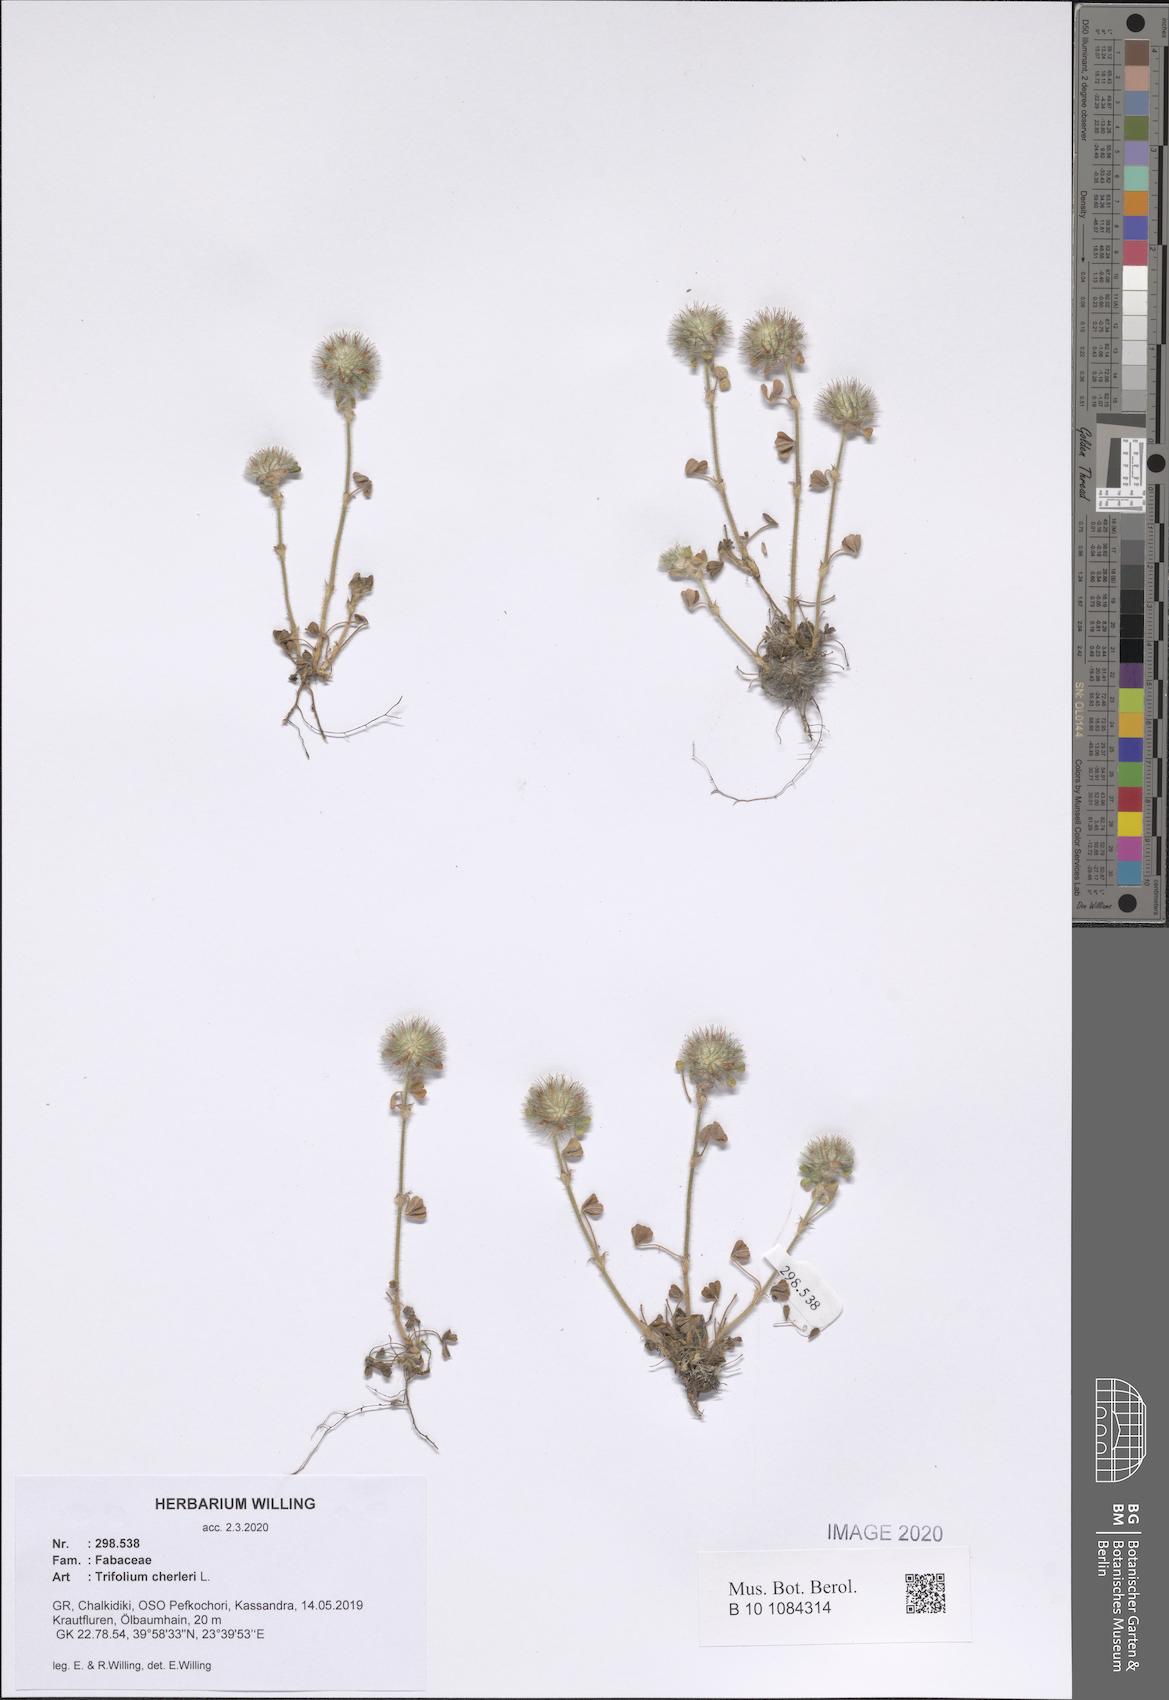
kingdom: Plantae
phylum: Tracheophyta
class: Magnoliopsida
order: Fabales
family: Fabaceae
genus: Trifolium
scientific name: Trifolium cherleri
